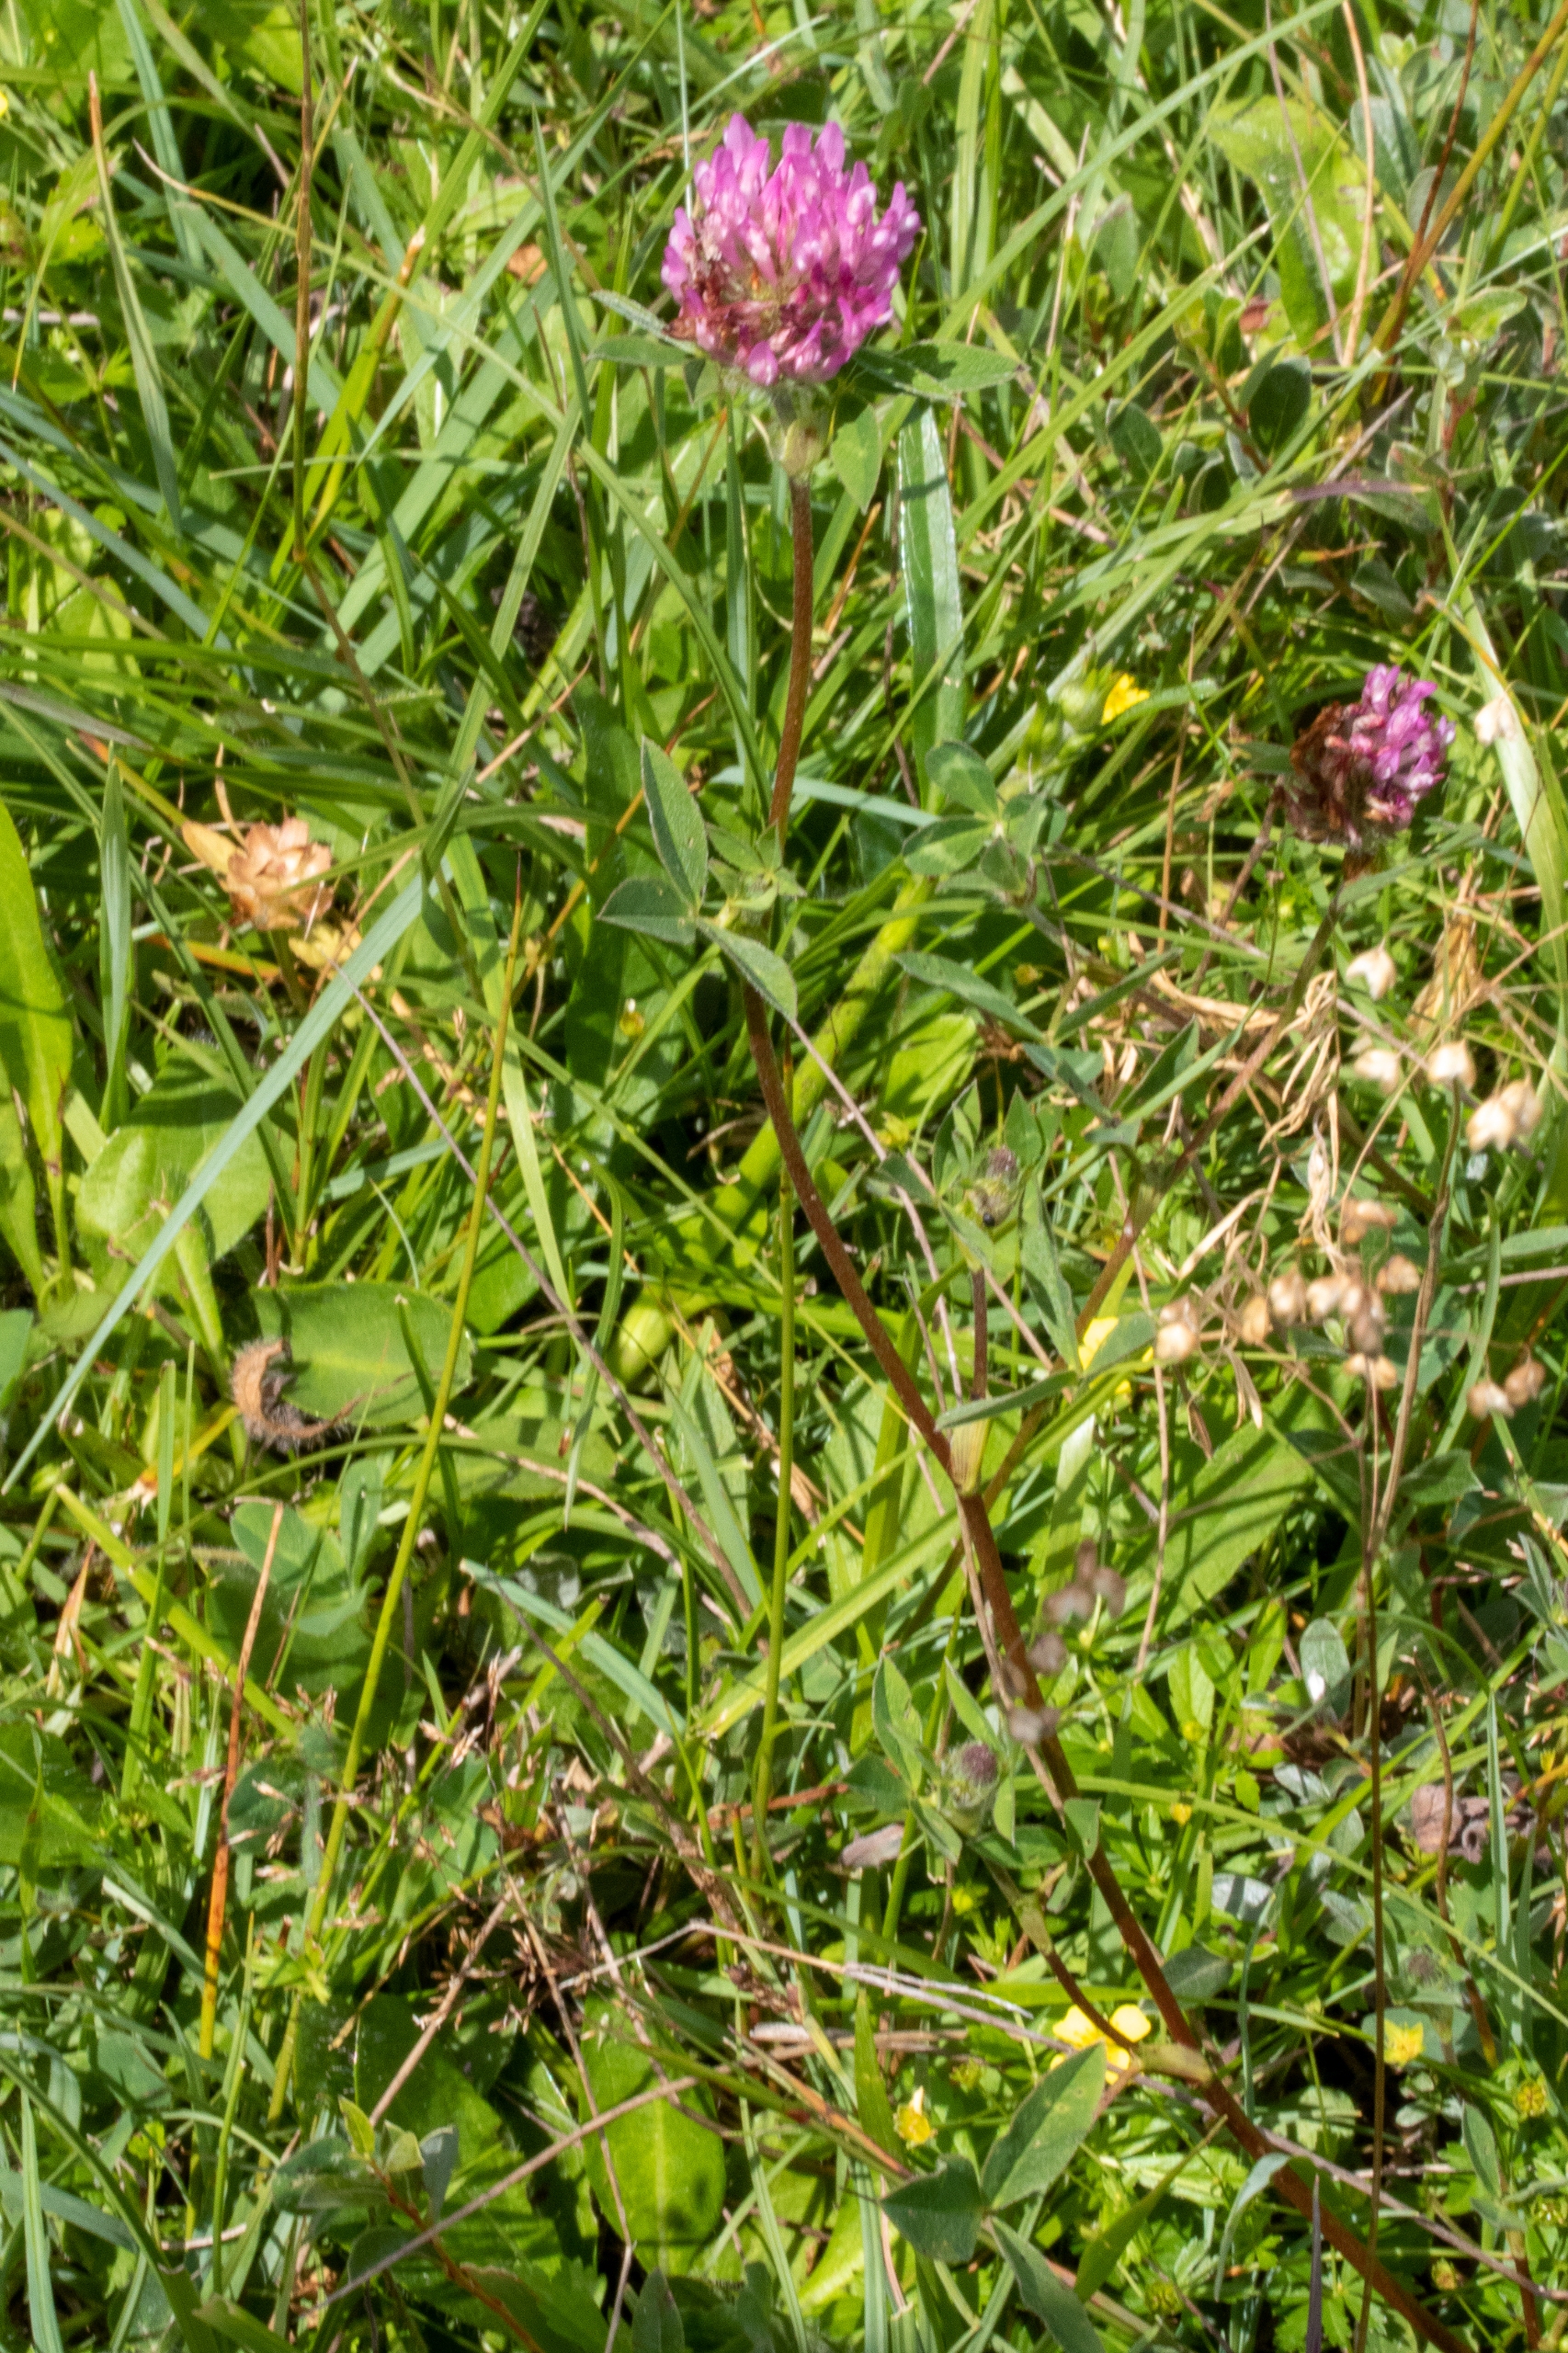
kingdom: Plantae
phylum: Tracheophyta
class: Magnoliopsida
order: Fabales
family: Fabaceae
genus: Trifolium
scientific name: Trifolium medium
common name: Bugtet kløver
